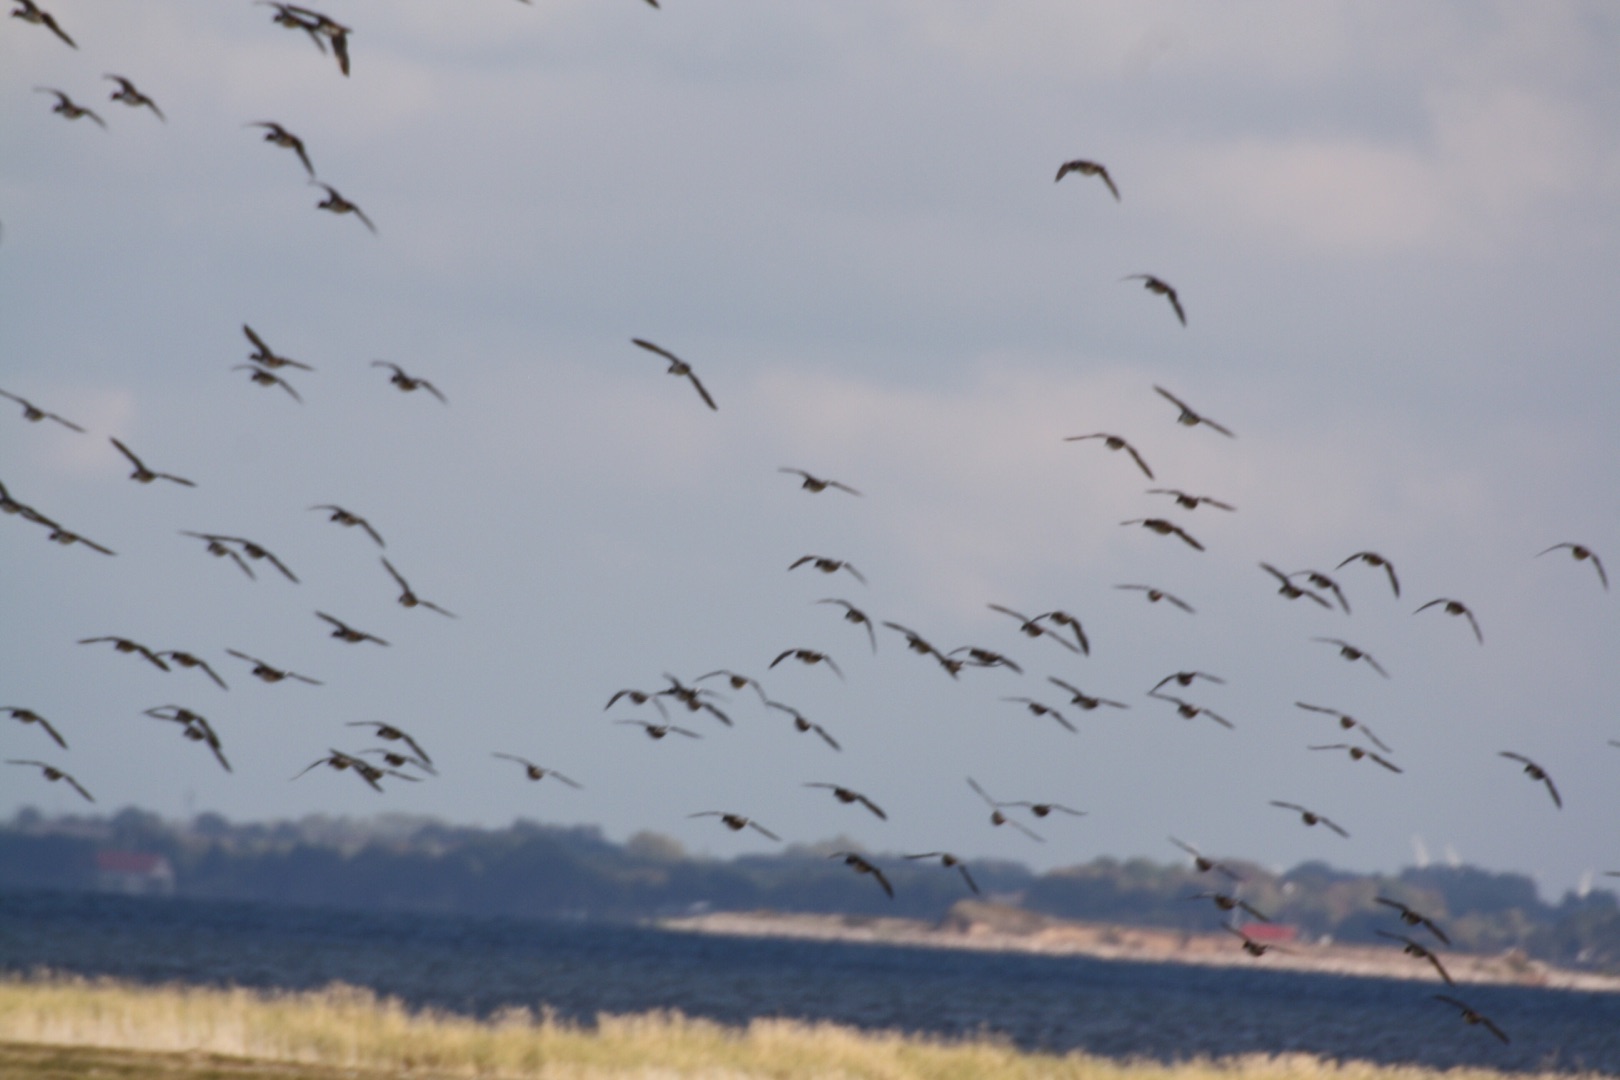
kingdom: Animalia
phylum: Chordata
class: Aves
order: Anseriformes
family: Anatidae
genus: Mareca
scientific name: Mareca penelope
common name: Pibeand
